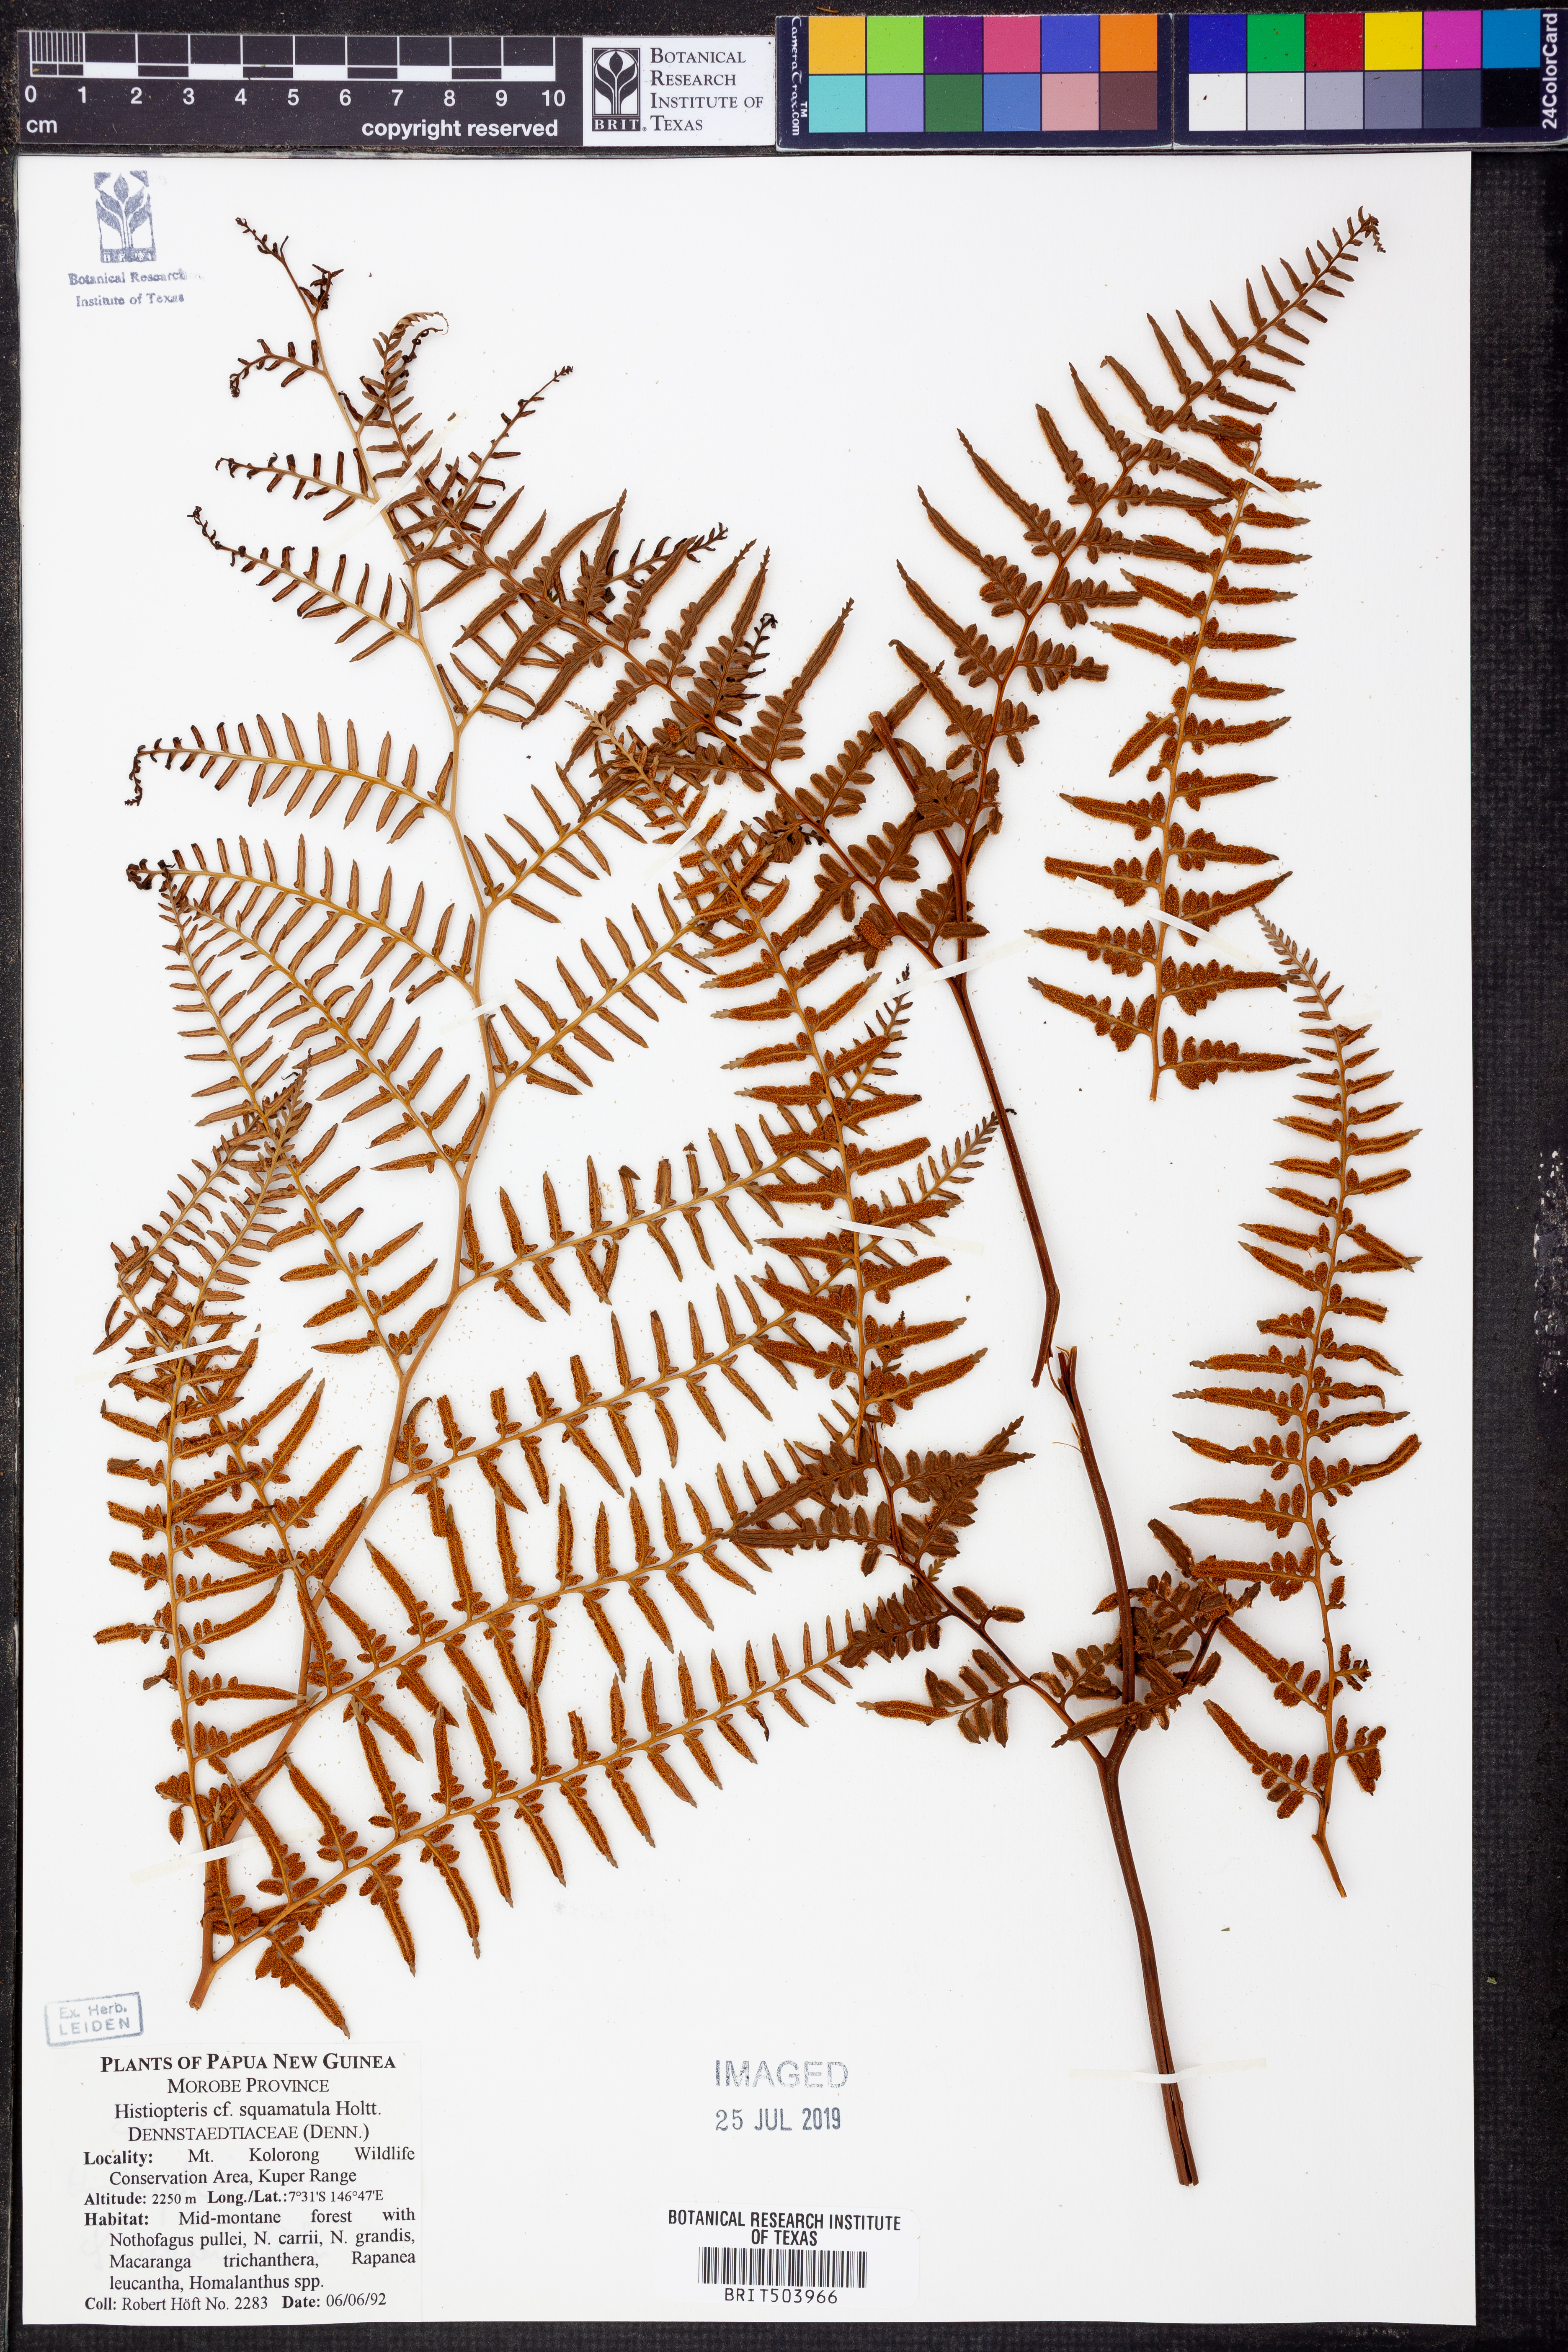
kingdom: Plantae
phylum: Tracheophyta
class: Polypodiopsida
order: Polypodiales
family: Dennstaedtiaceae
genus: Histiopteris
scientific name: Histiopteris squamulata
